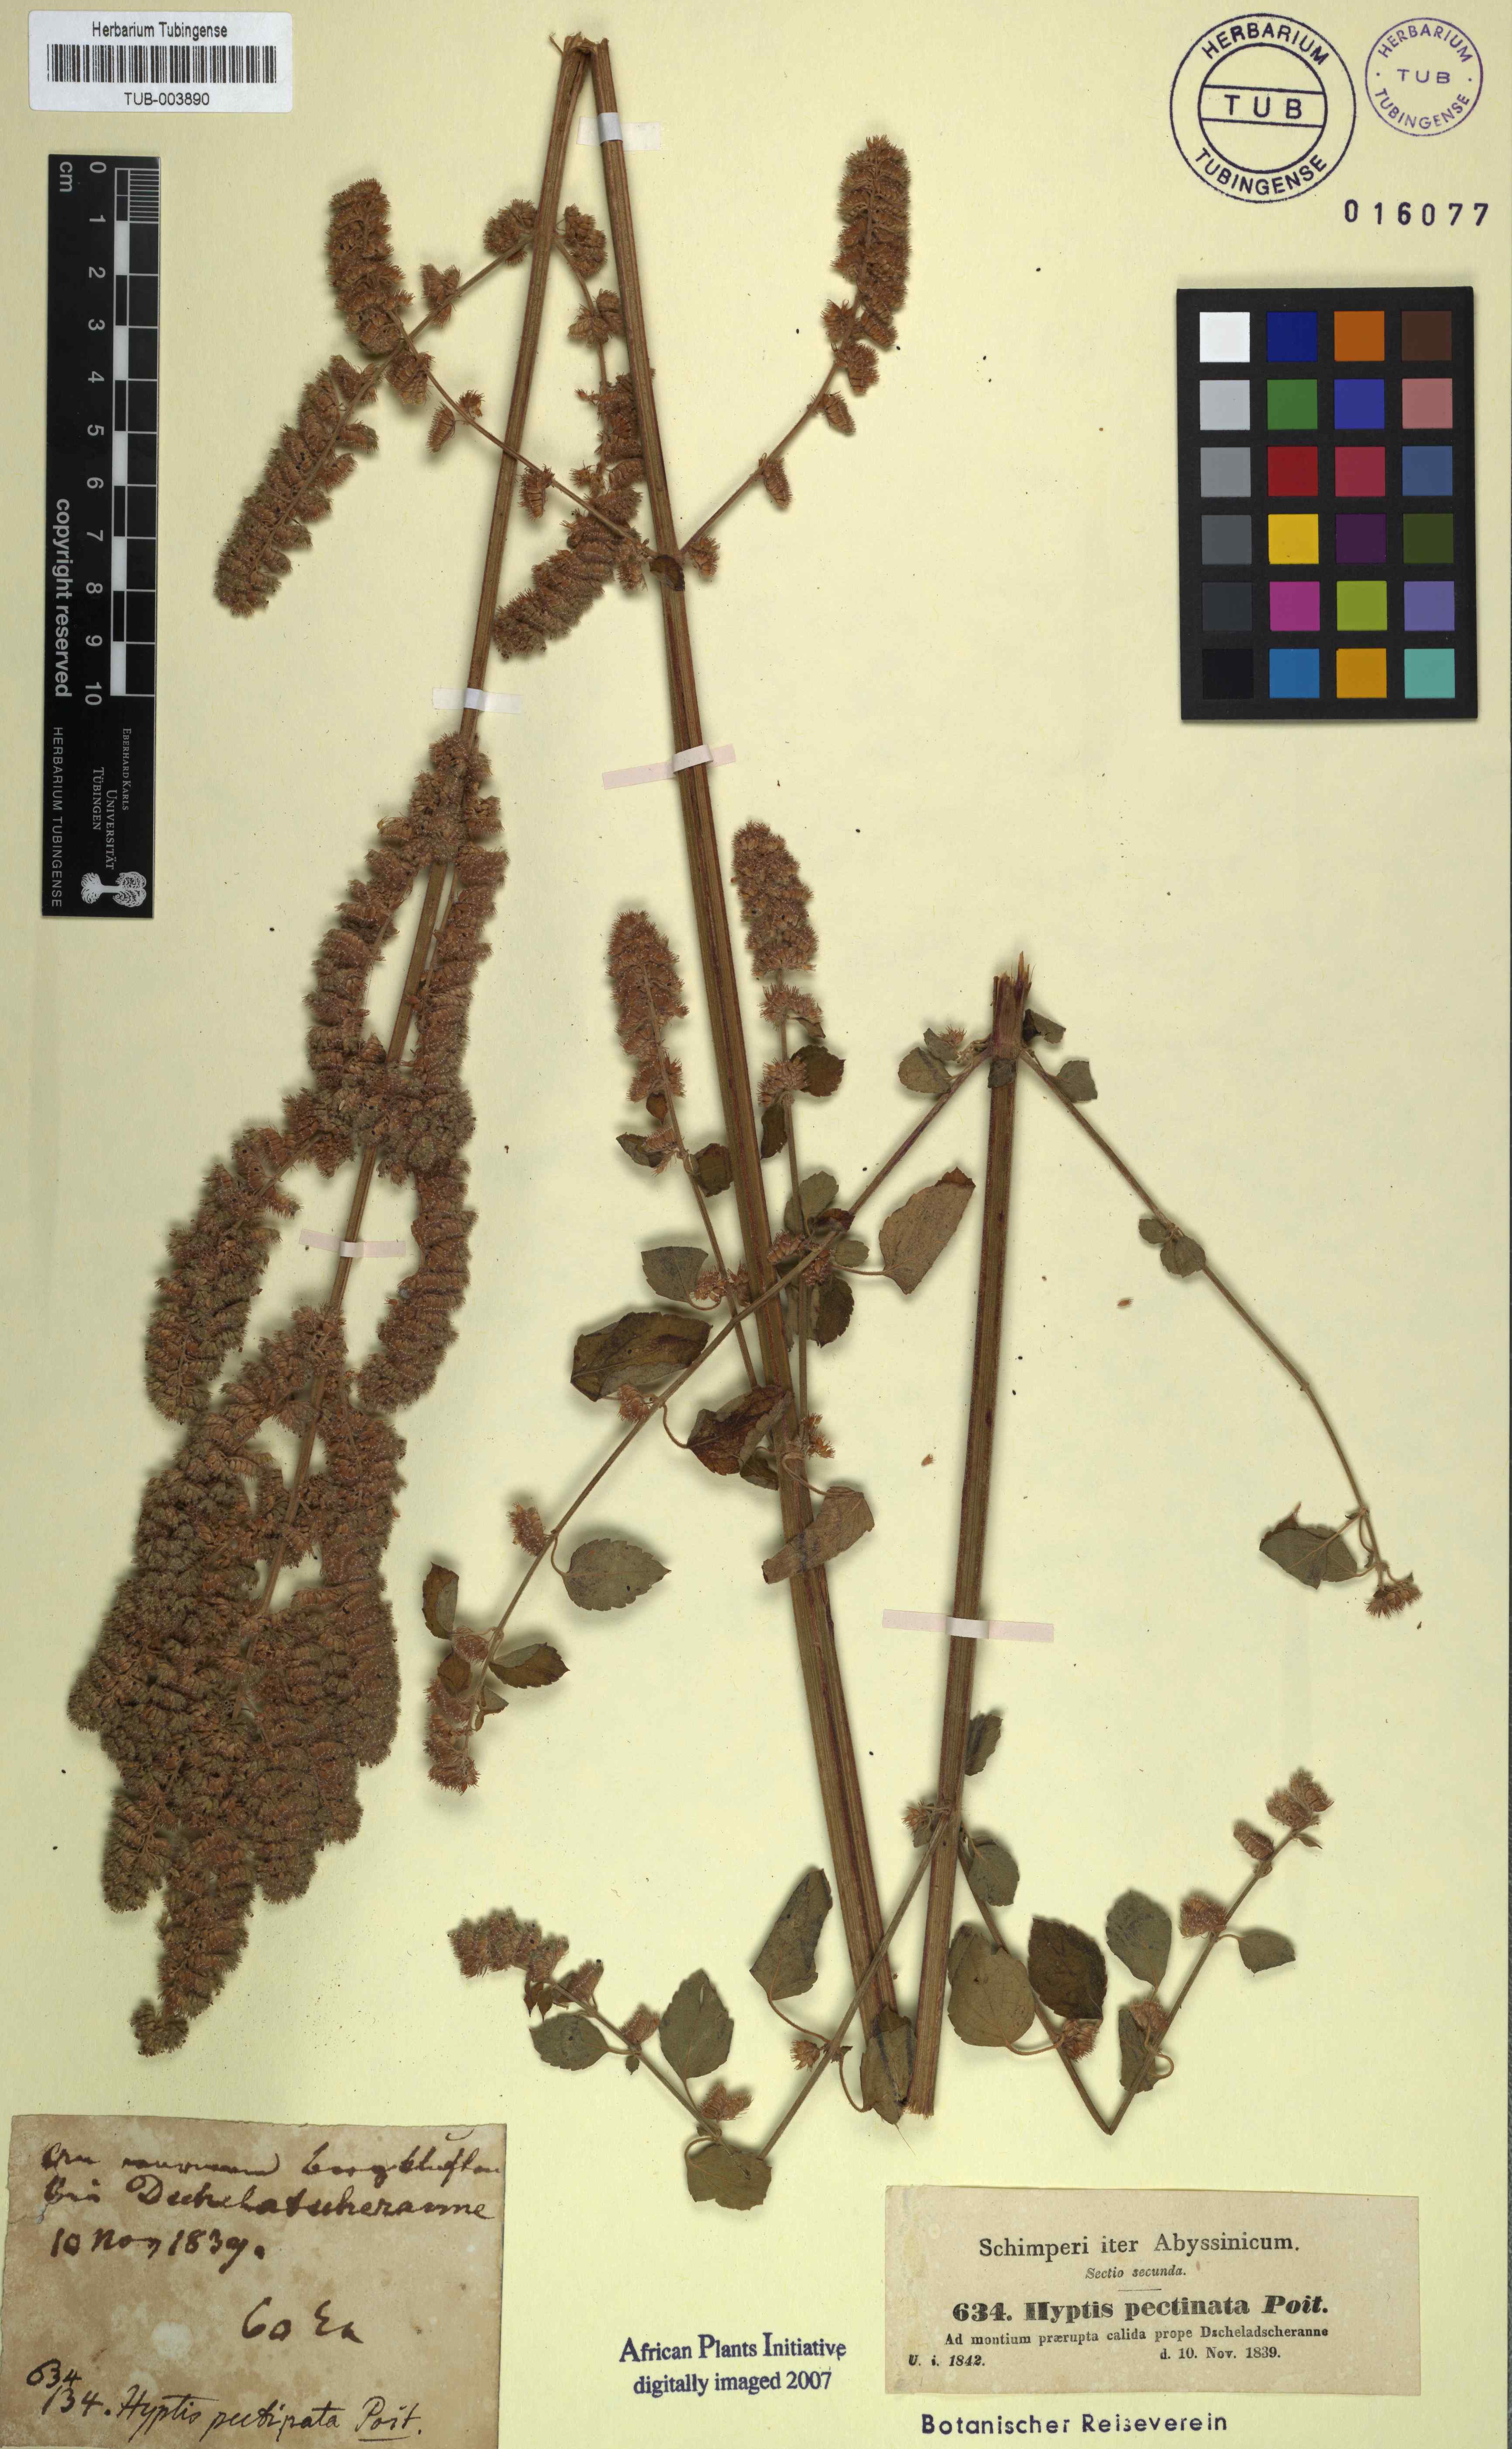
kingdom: Plantae
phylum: Tracheophyta
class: Magnoliopsida
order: Lamiales
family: Lamiaceae
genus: Mesosphaerum
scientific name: Mesosphaerum pectinatum
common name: Comb hyptis
